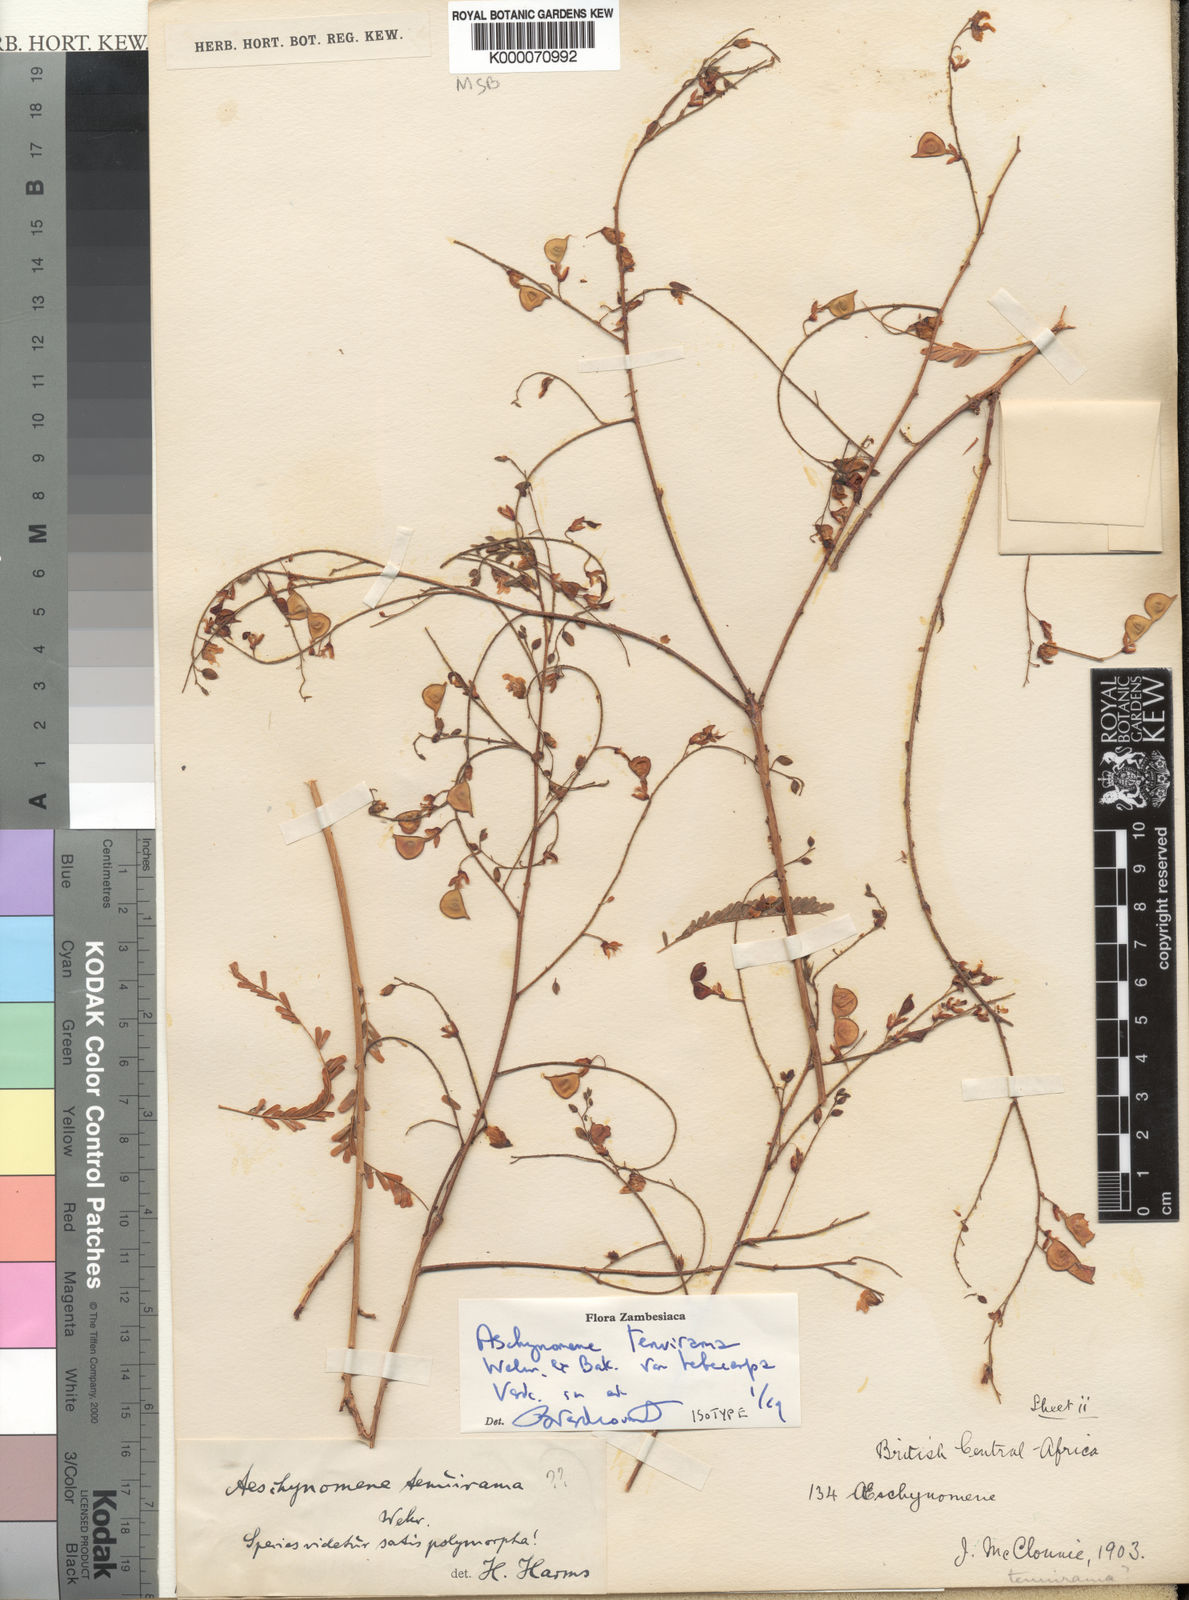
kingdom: Plantae
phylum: Tracheophyta
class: Magnoliopsida
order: Fabales
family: Fabaceae
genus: Aeschynomene
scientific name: Aeschynomene tenuirama
